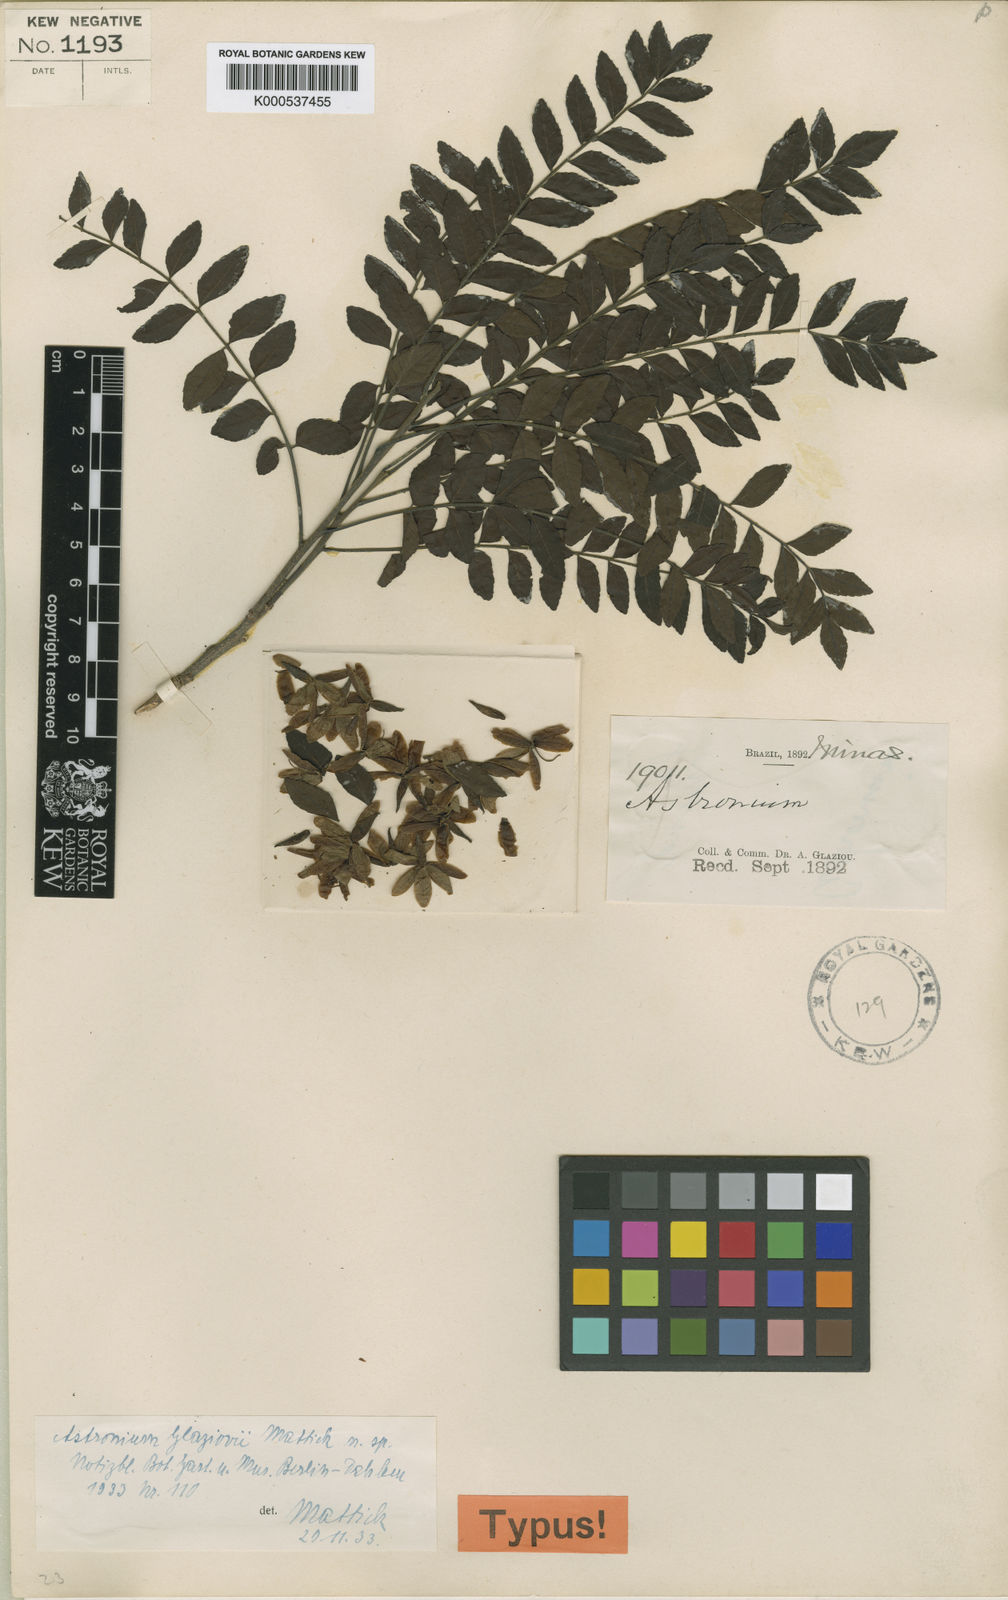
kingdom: Plantae
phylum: Tracheophyta
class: Magnoliopsida
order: Sapindales
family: Anacardiaceae
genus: Astronium
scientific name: Astronium glaziovii
